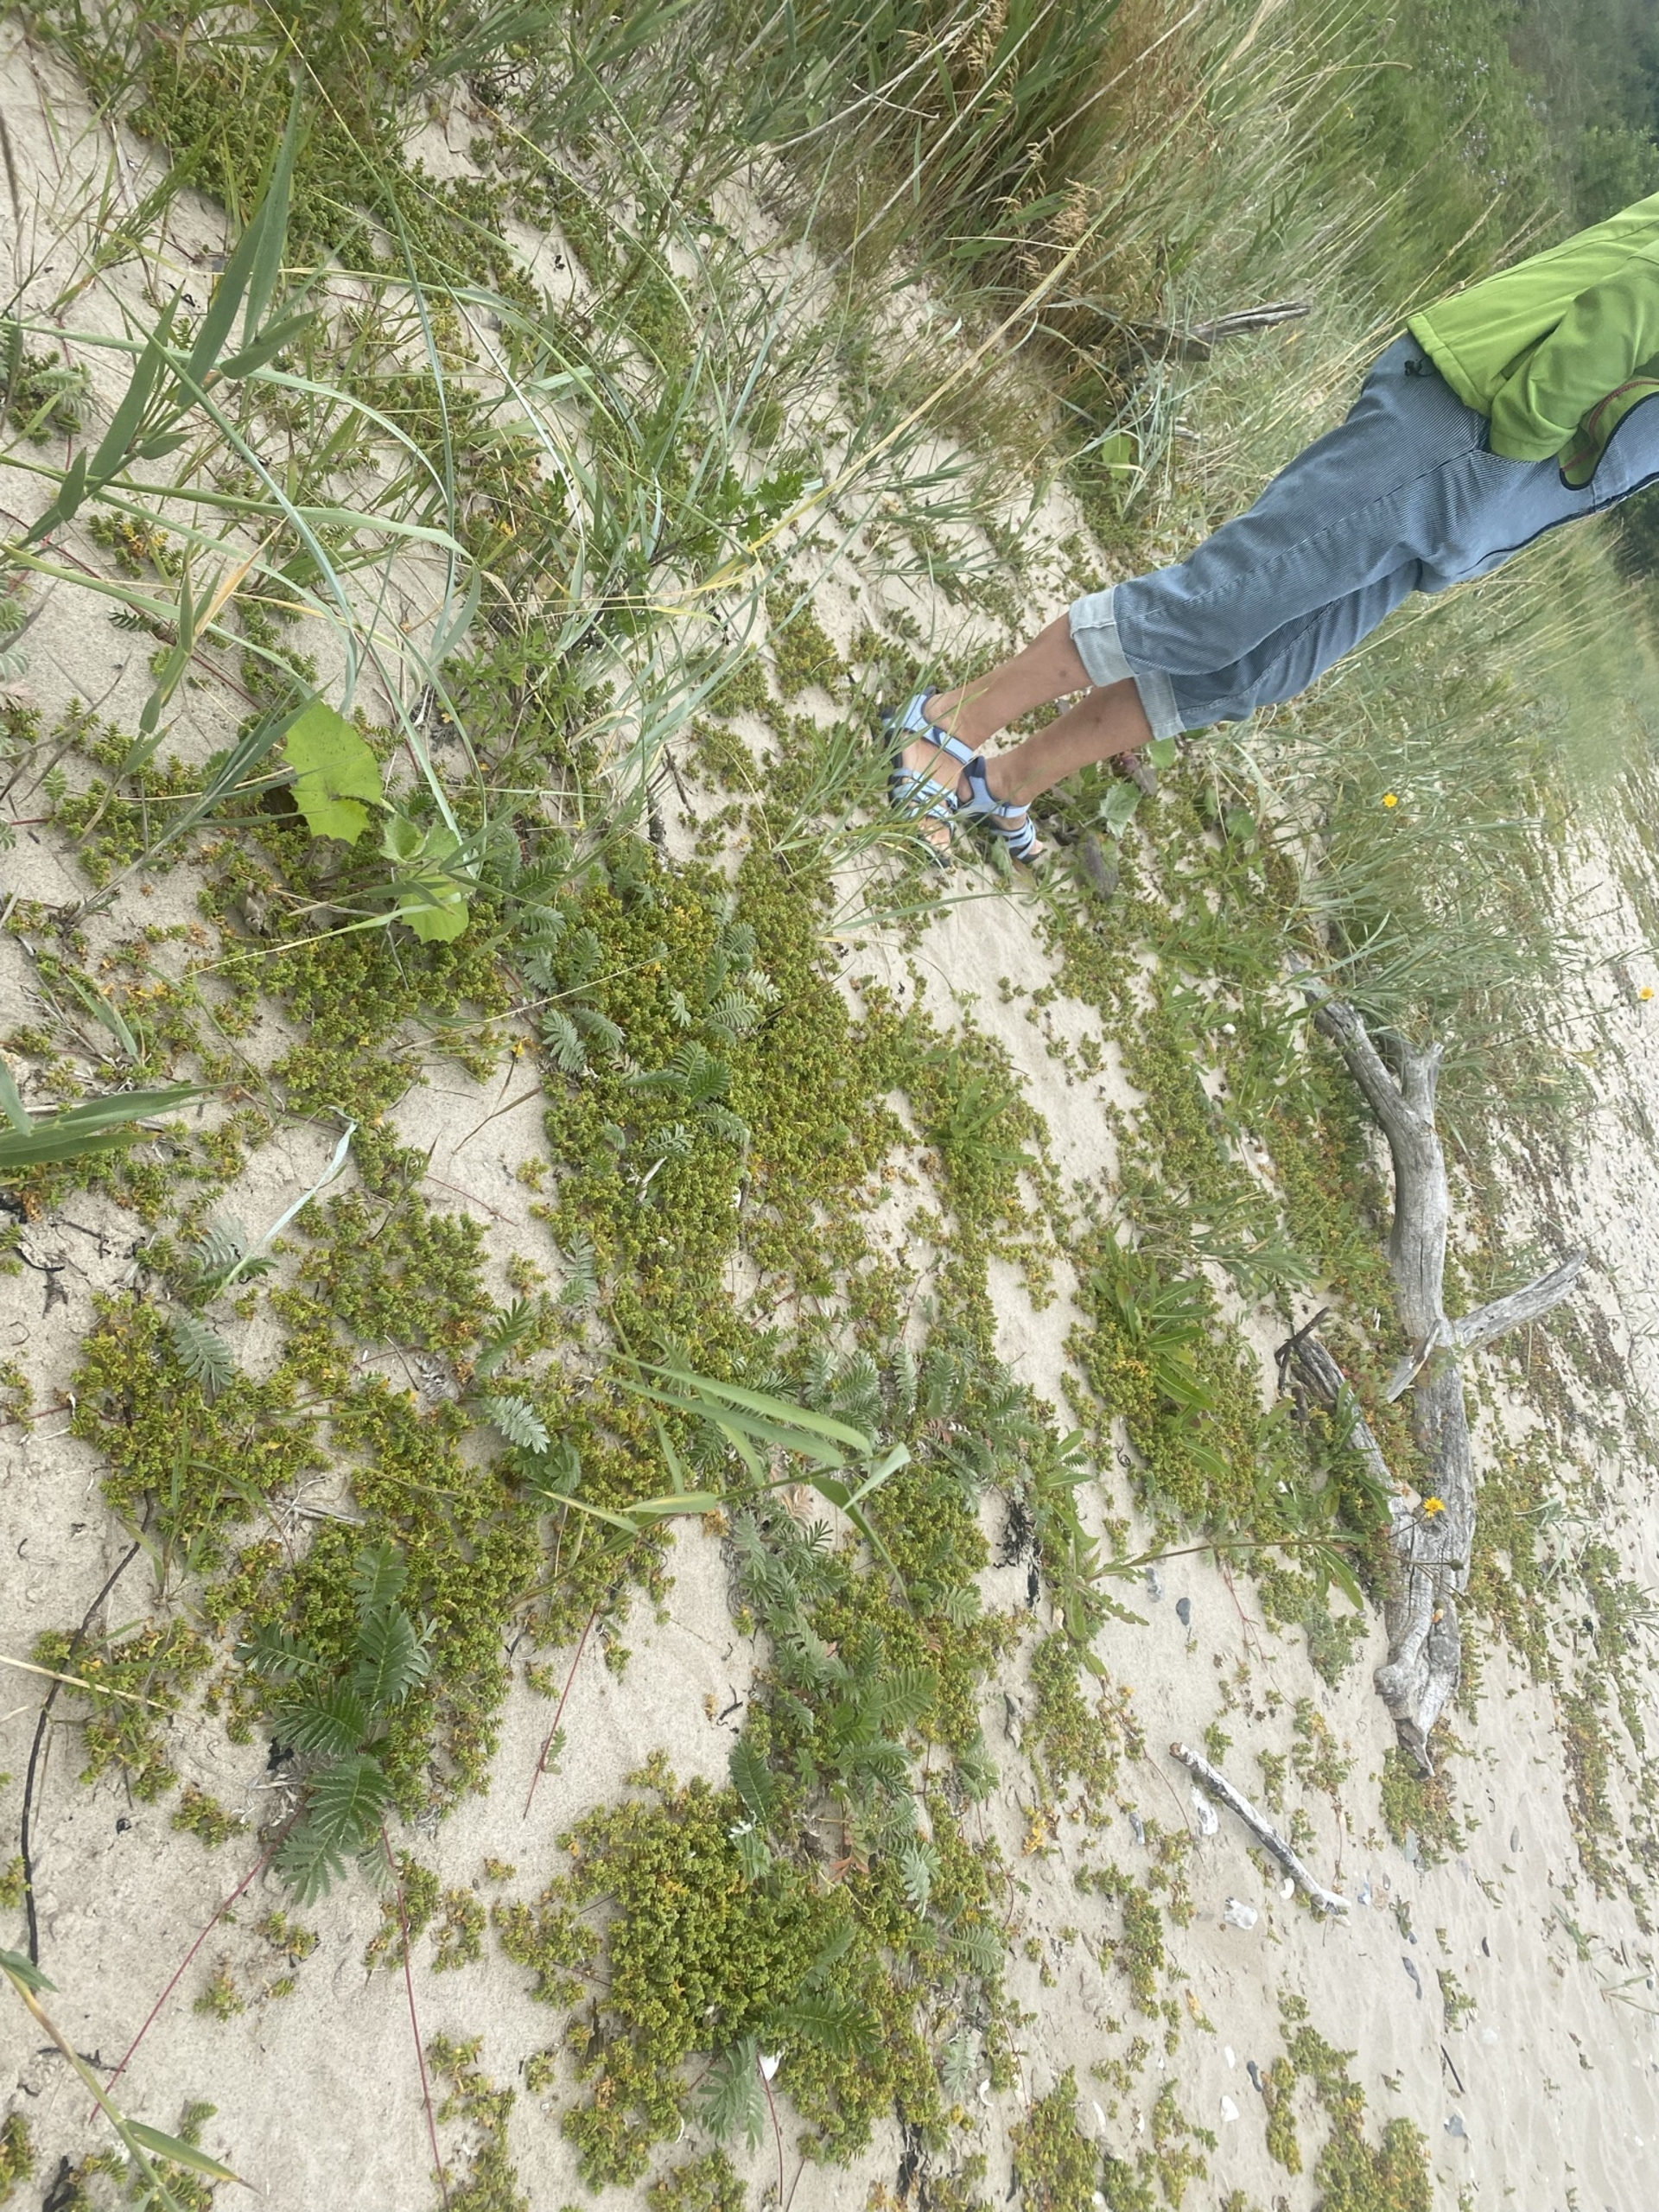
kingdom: Plantae
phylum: Tracheophyta
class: Magnoliopsida
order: Caryophyllales
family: Caryophyllaceae
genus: Honckenya
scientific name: Honckenya peploides
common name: Strandarve
